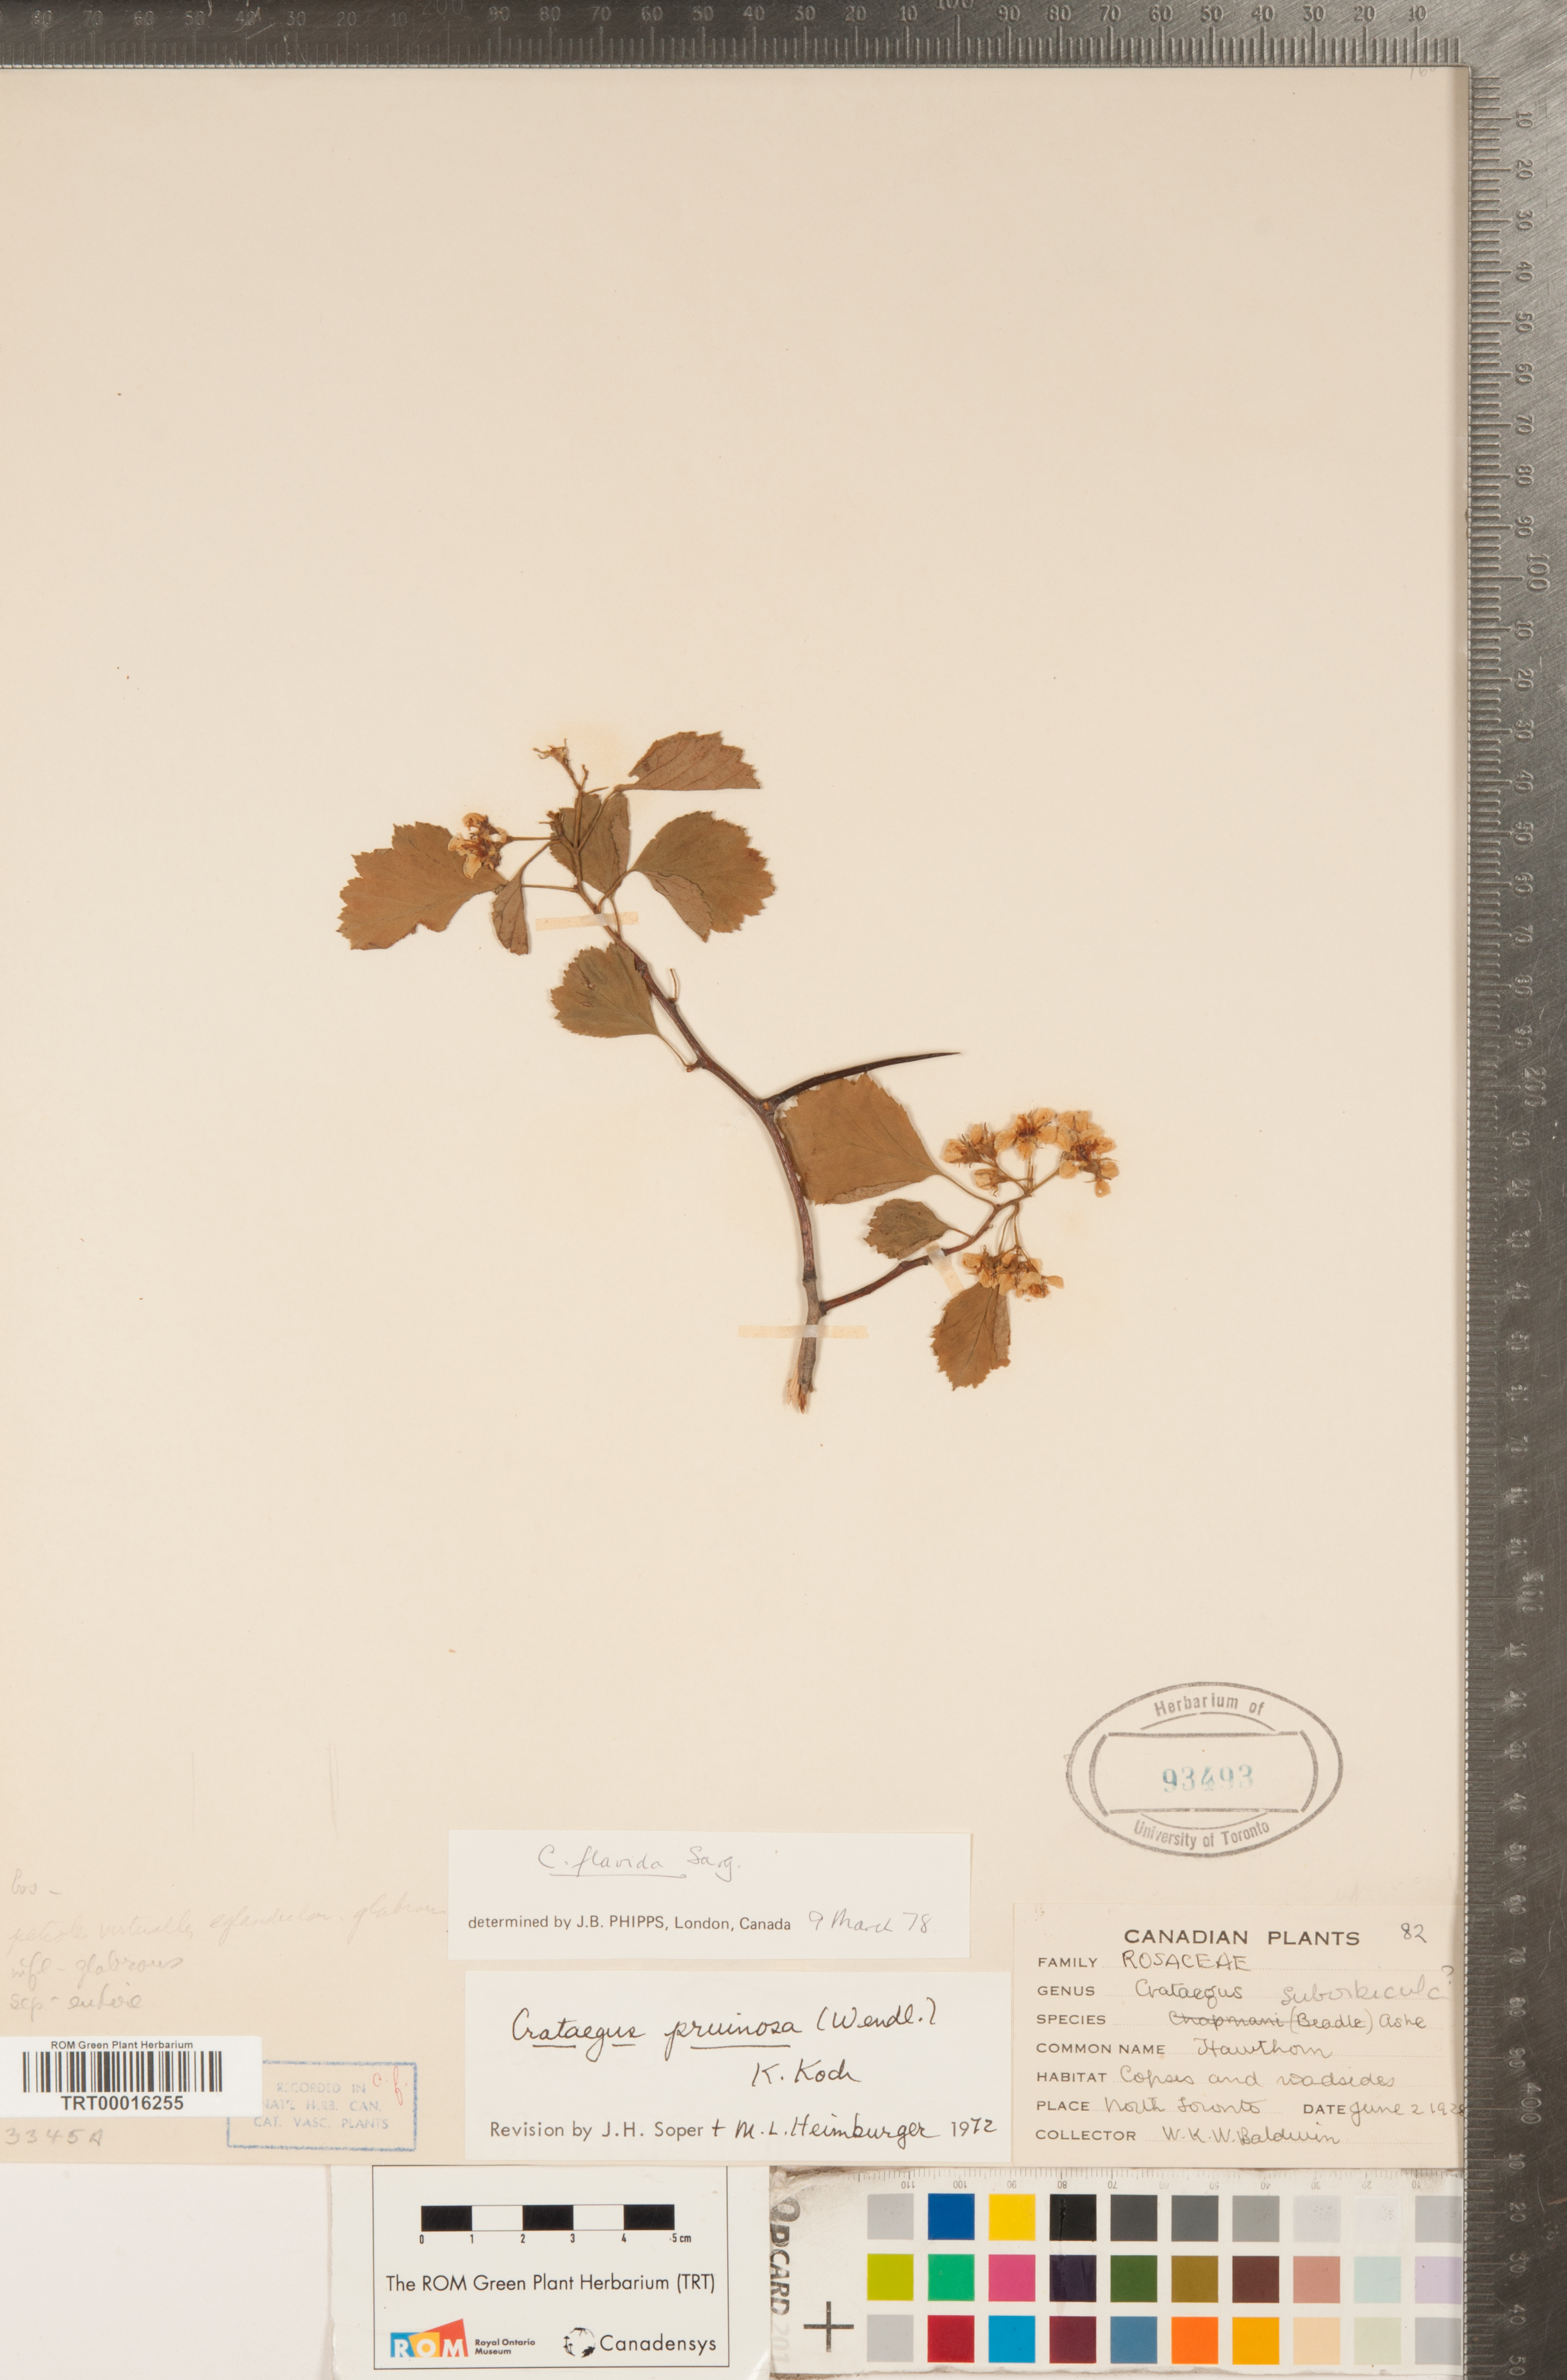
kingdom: Plantae
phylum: Tracheophyta
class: Magnoliopsida
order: Rosales
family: Rosaceae
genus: Crataegus
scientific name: Crataegus dodgei
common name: Dodge's hawthorn
